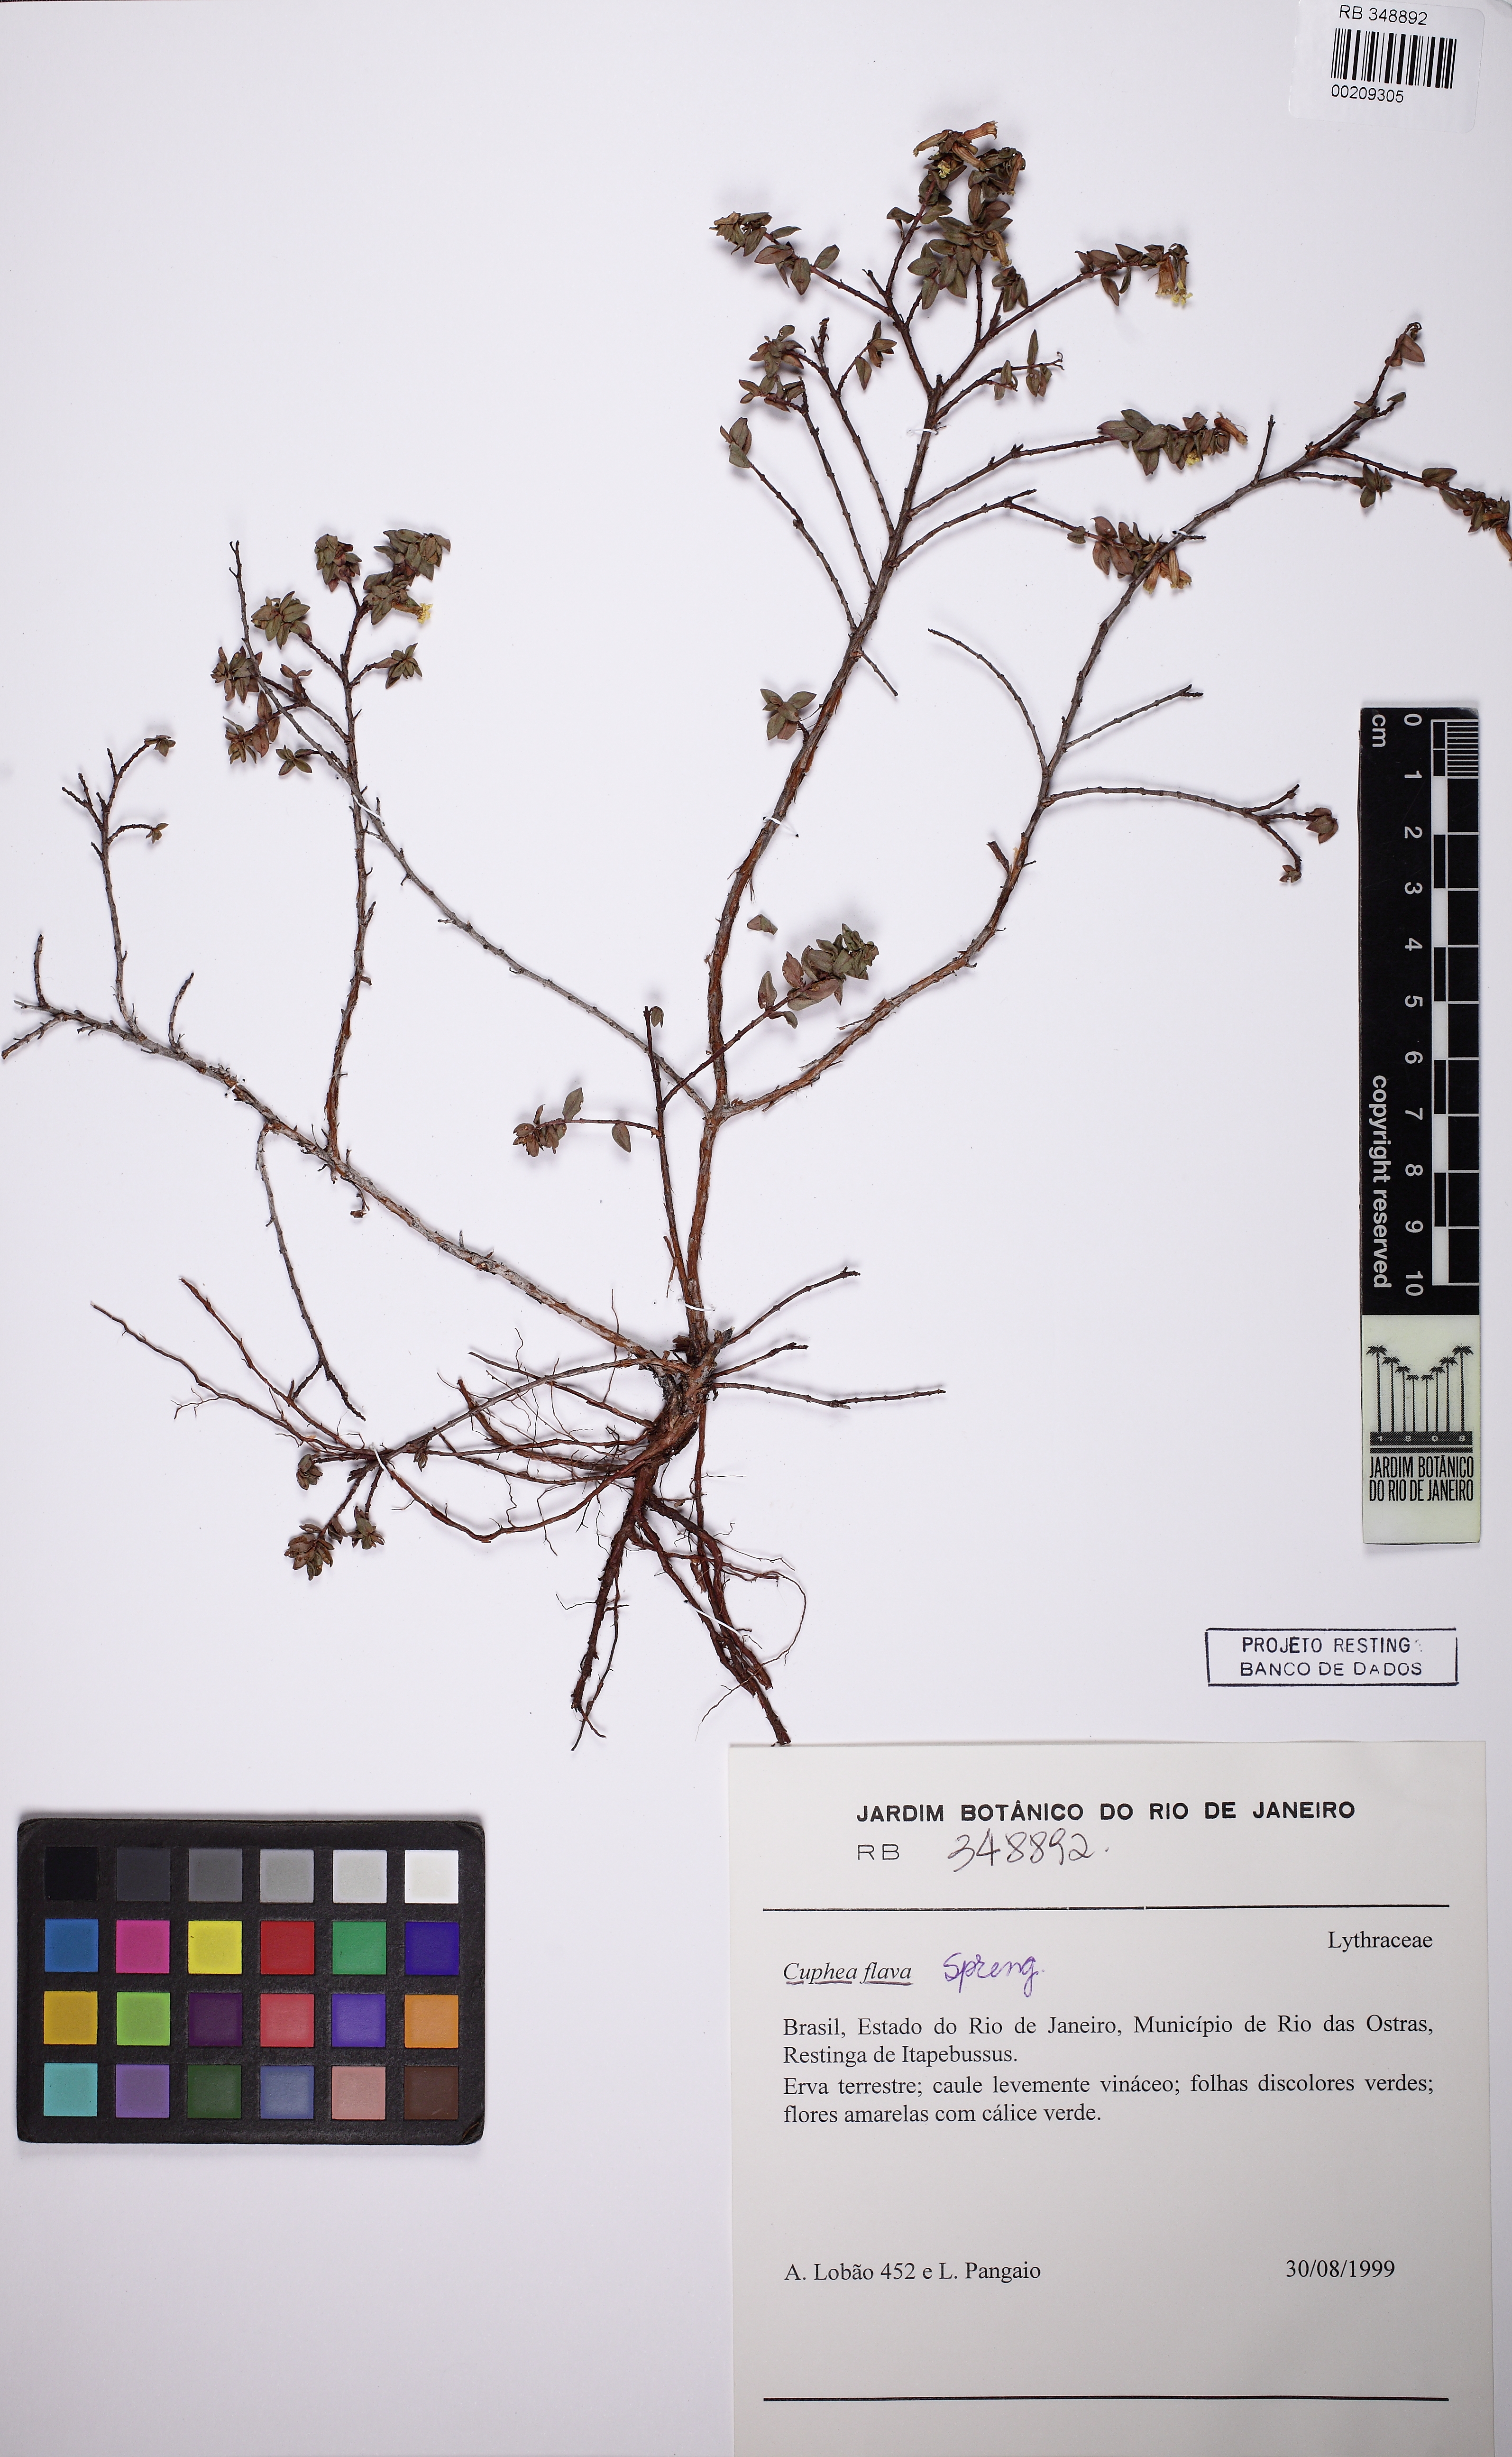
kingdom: Plantae
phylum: Tracheophyta
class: Magnoliopsida
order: Myrtales
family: Lythraceae
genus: Cuphea
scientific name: Cuphea flava
